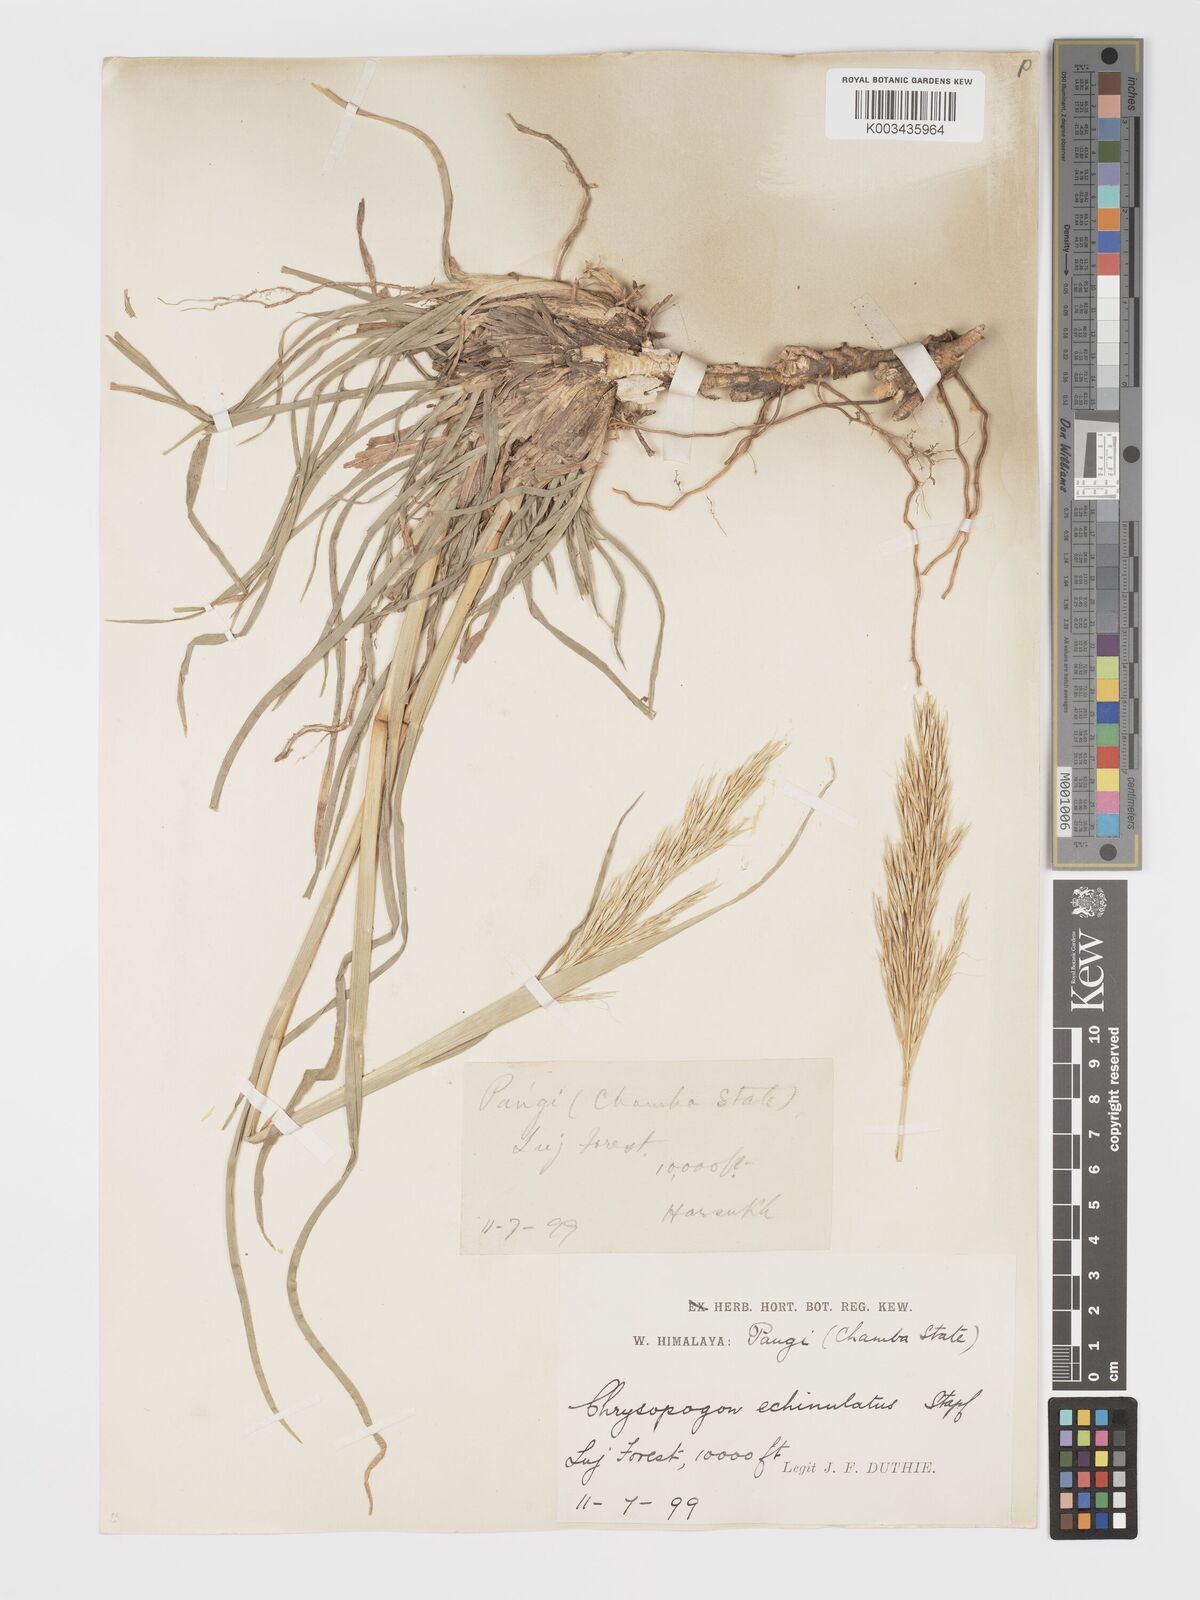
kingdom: Plantae
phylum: Tracheophyta
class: Liliopsida
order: Poales
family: Poaceae
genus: Chrysopogon
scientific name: Chrysopogon gryllus
